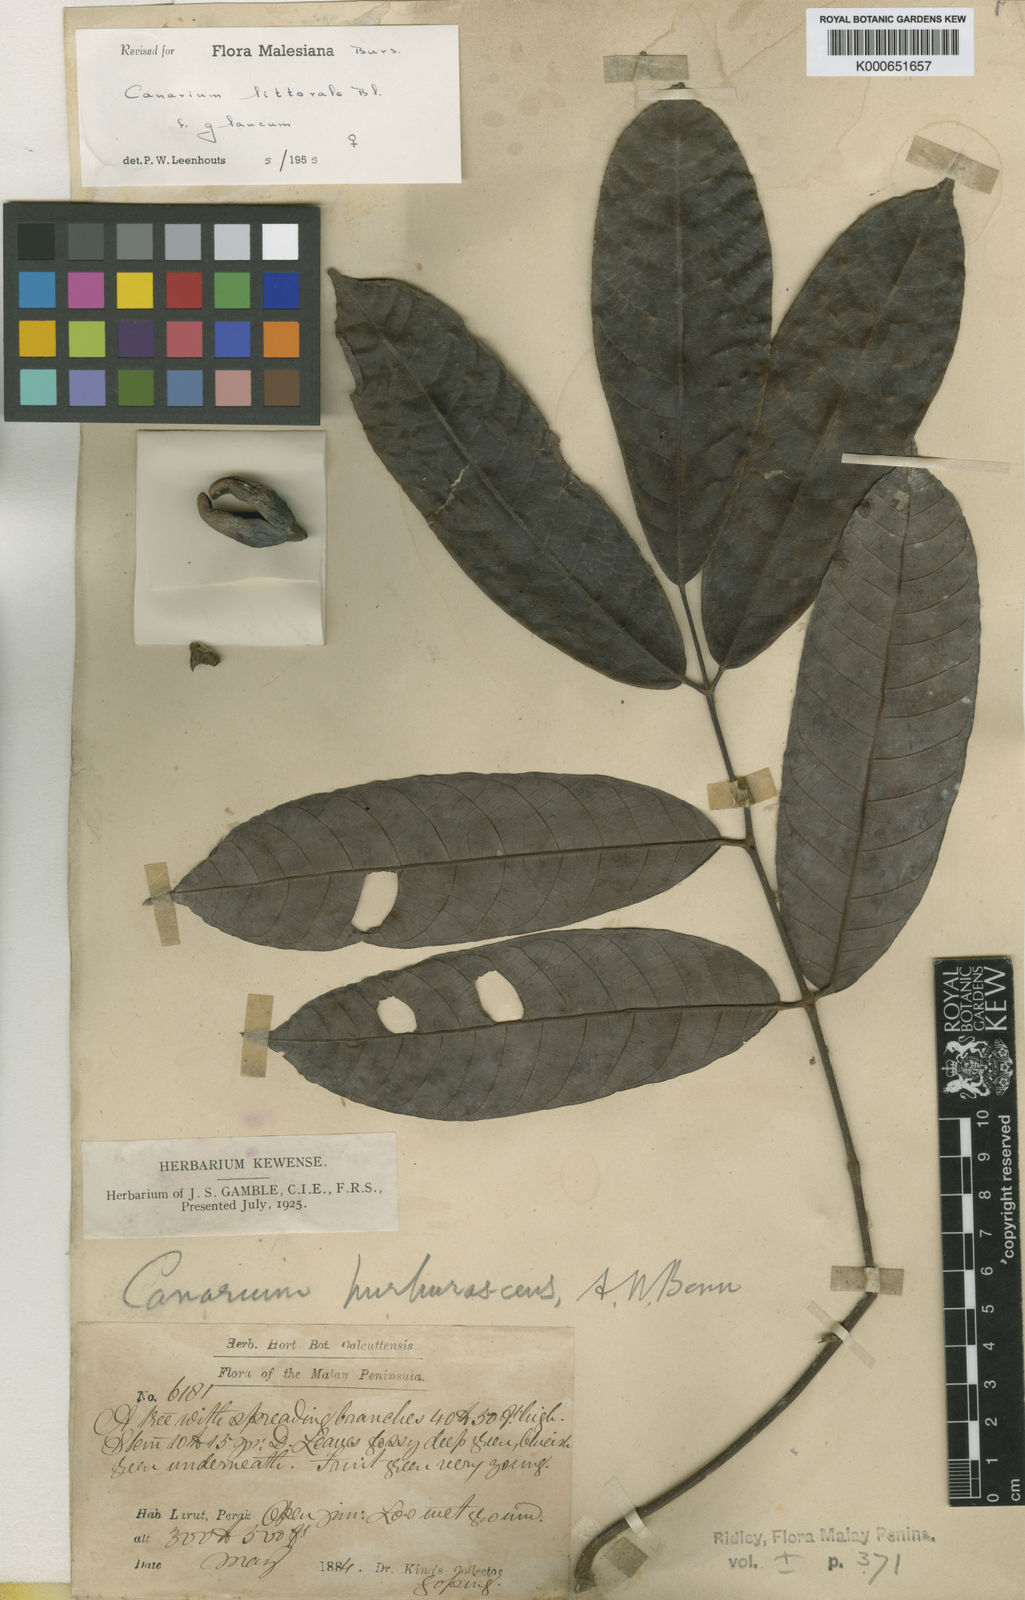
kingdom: Plantae
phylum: Tracheophyta
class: Magnoliopsida
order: Sapindales
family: Burseraceae
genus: Canarium
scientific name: Canarium littorale
